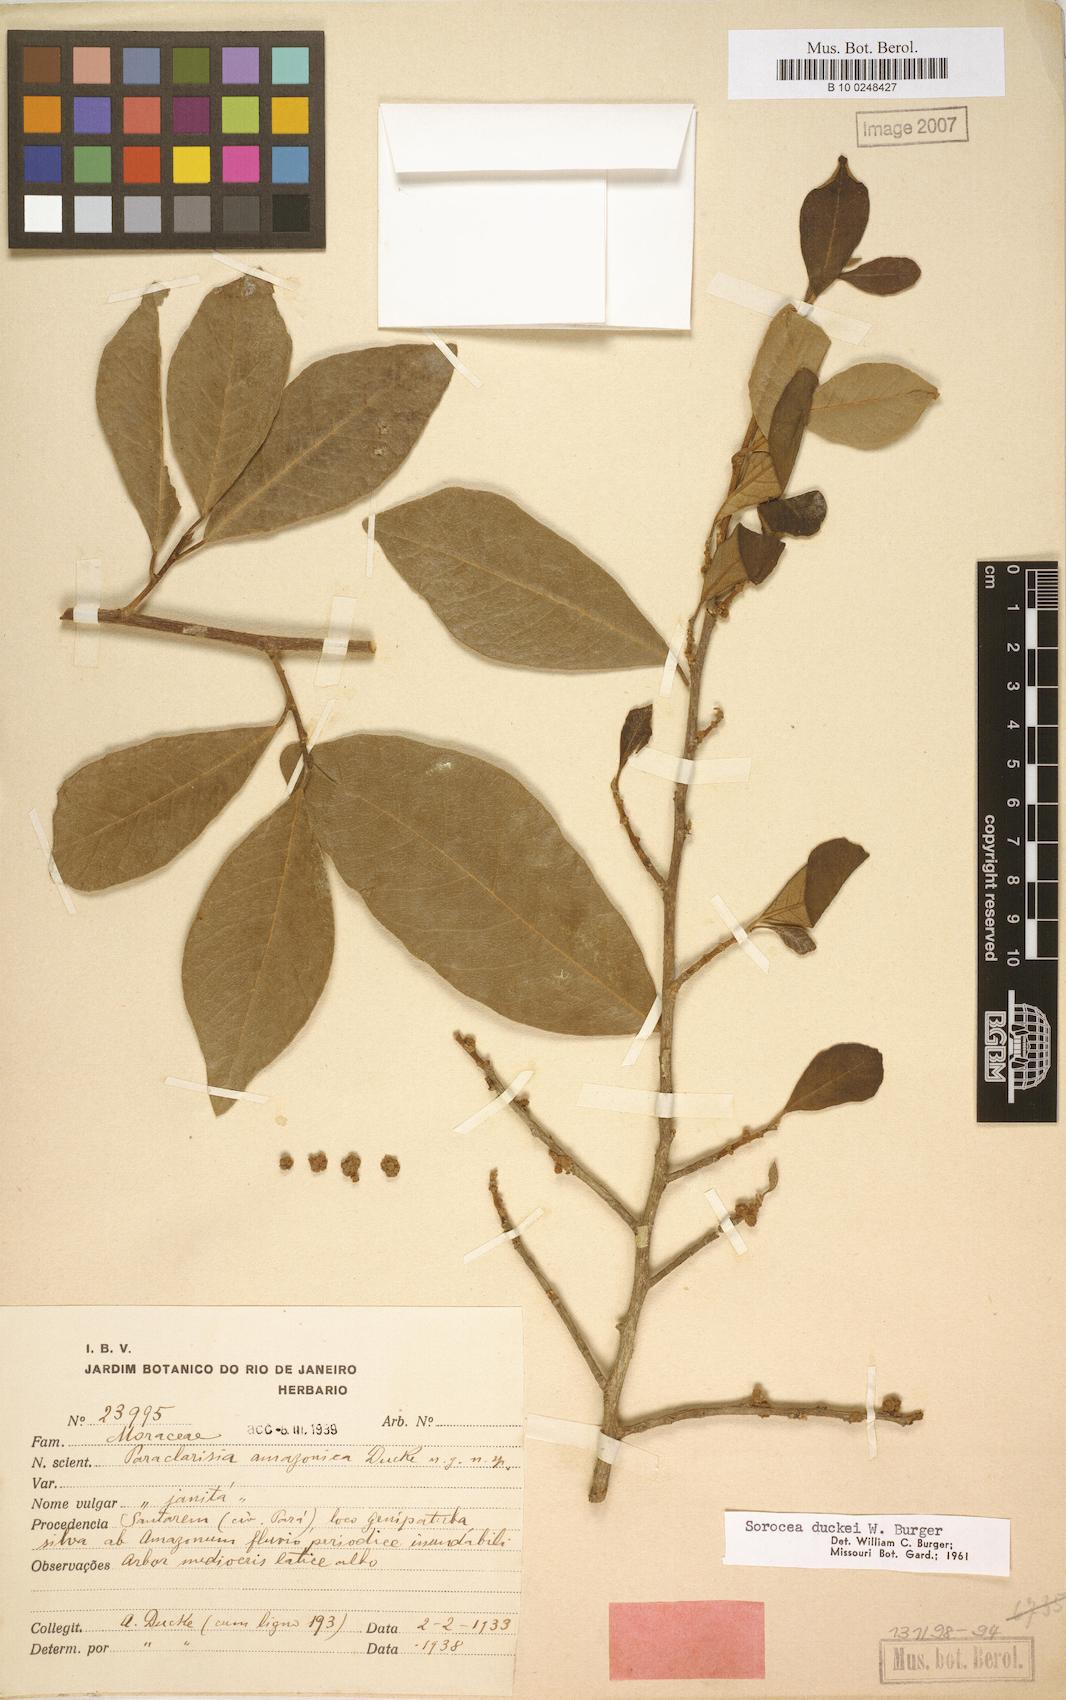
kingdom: Plantae
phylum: Tracheophyta
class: Magnoliopsida
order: Rosales
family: Moraceae
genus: Sorocea
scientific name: Sorocea duckei
